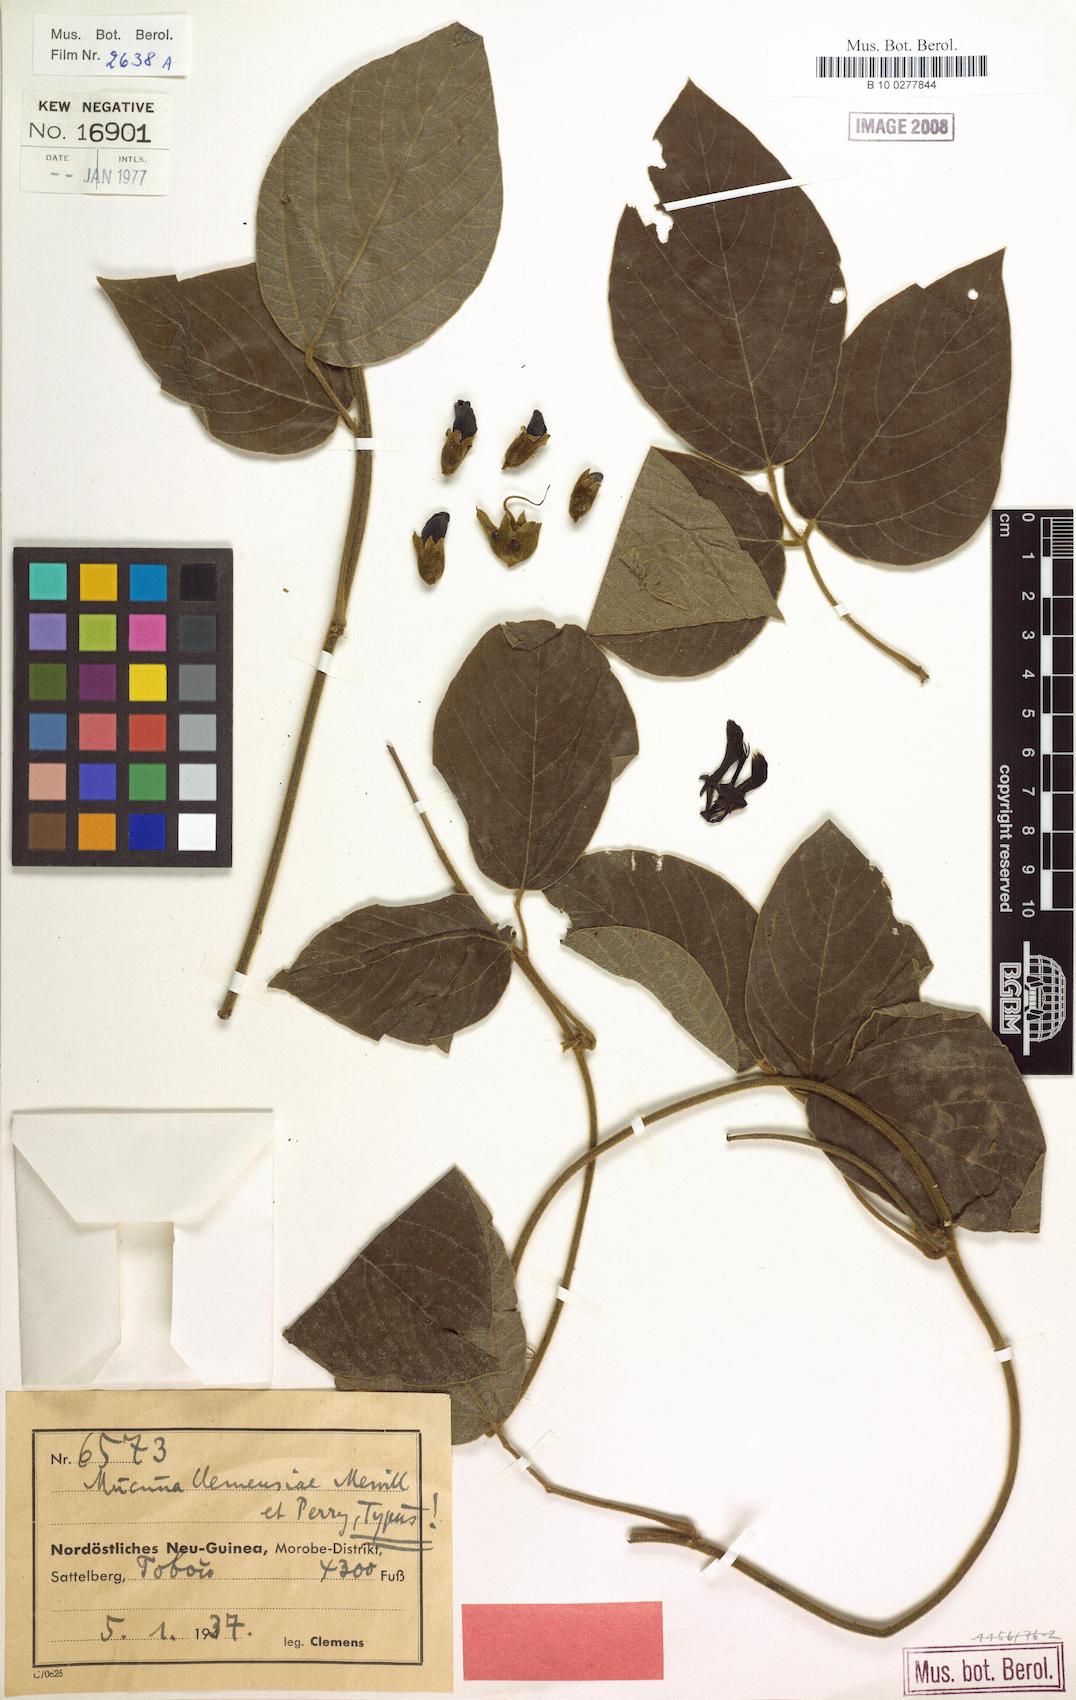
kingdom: Plantae
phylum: Tracheophyta
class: Magnoliopsida
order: Fabales
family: Fabaceae
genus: Mucuna
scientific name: Mucuna mollissima
